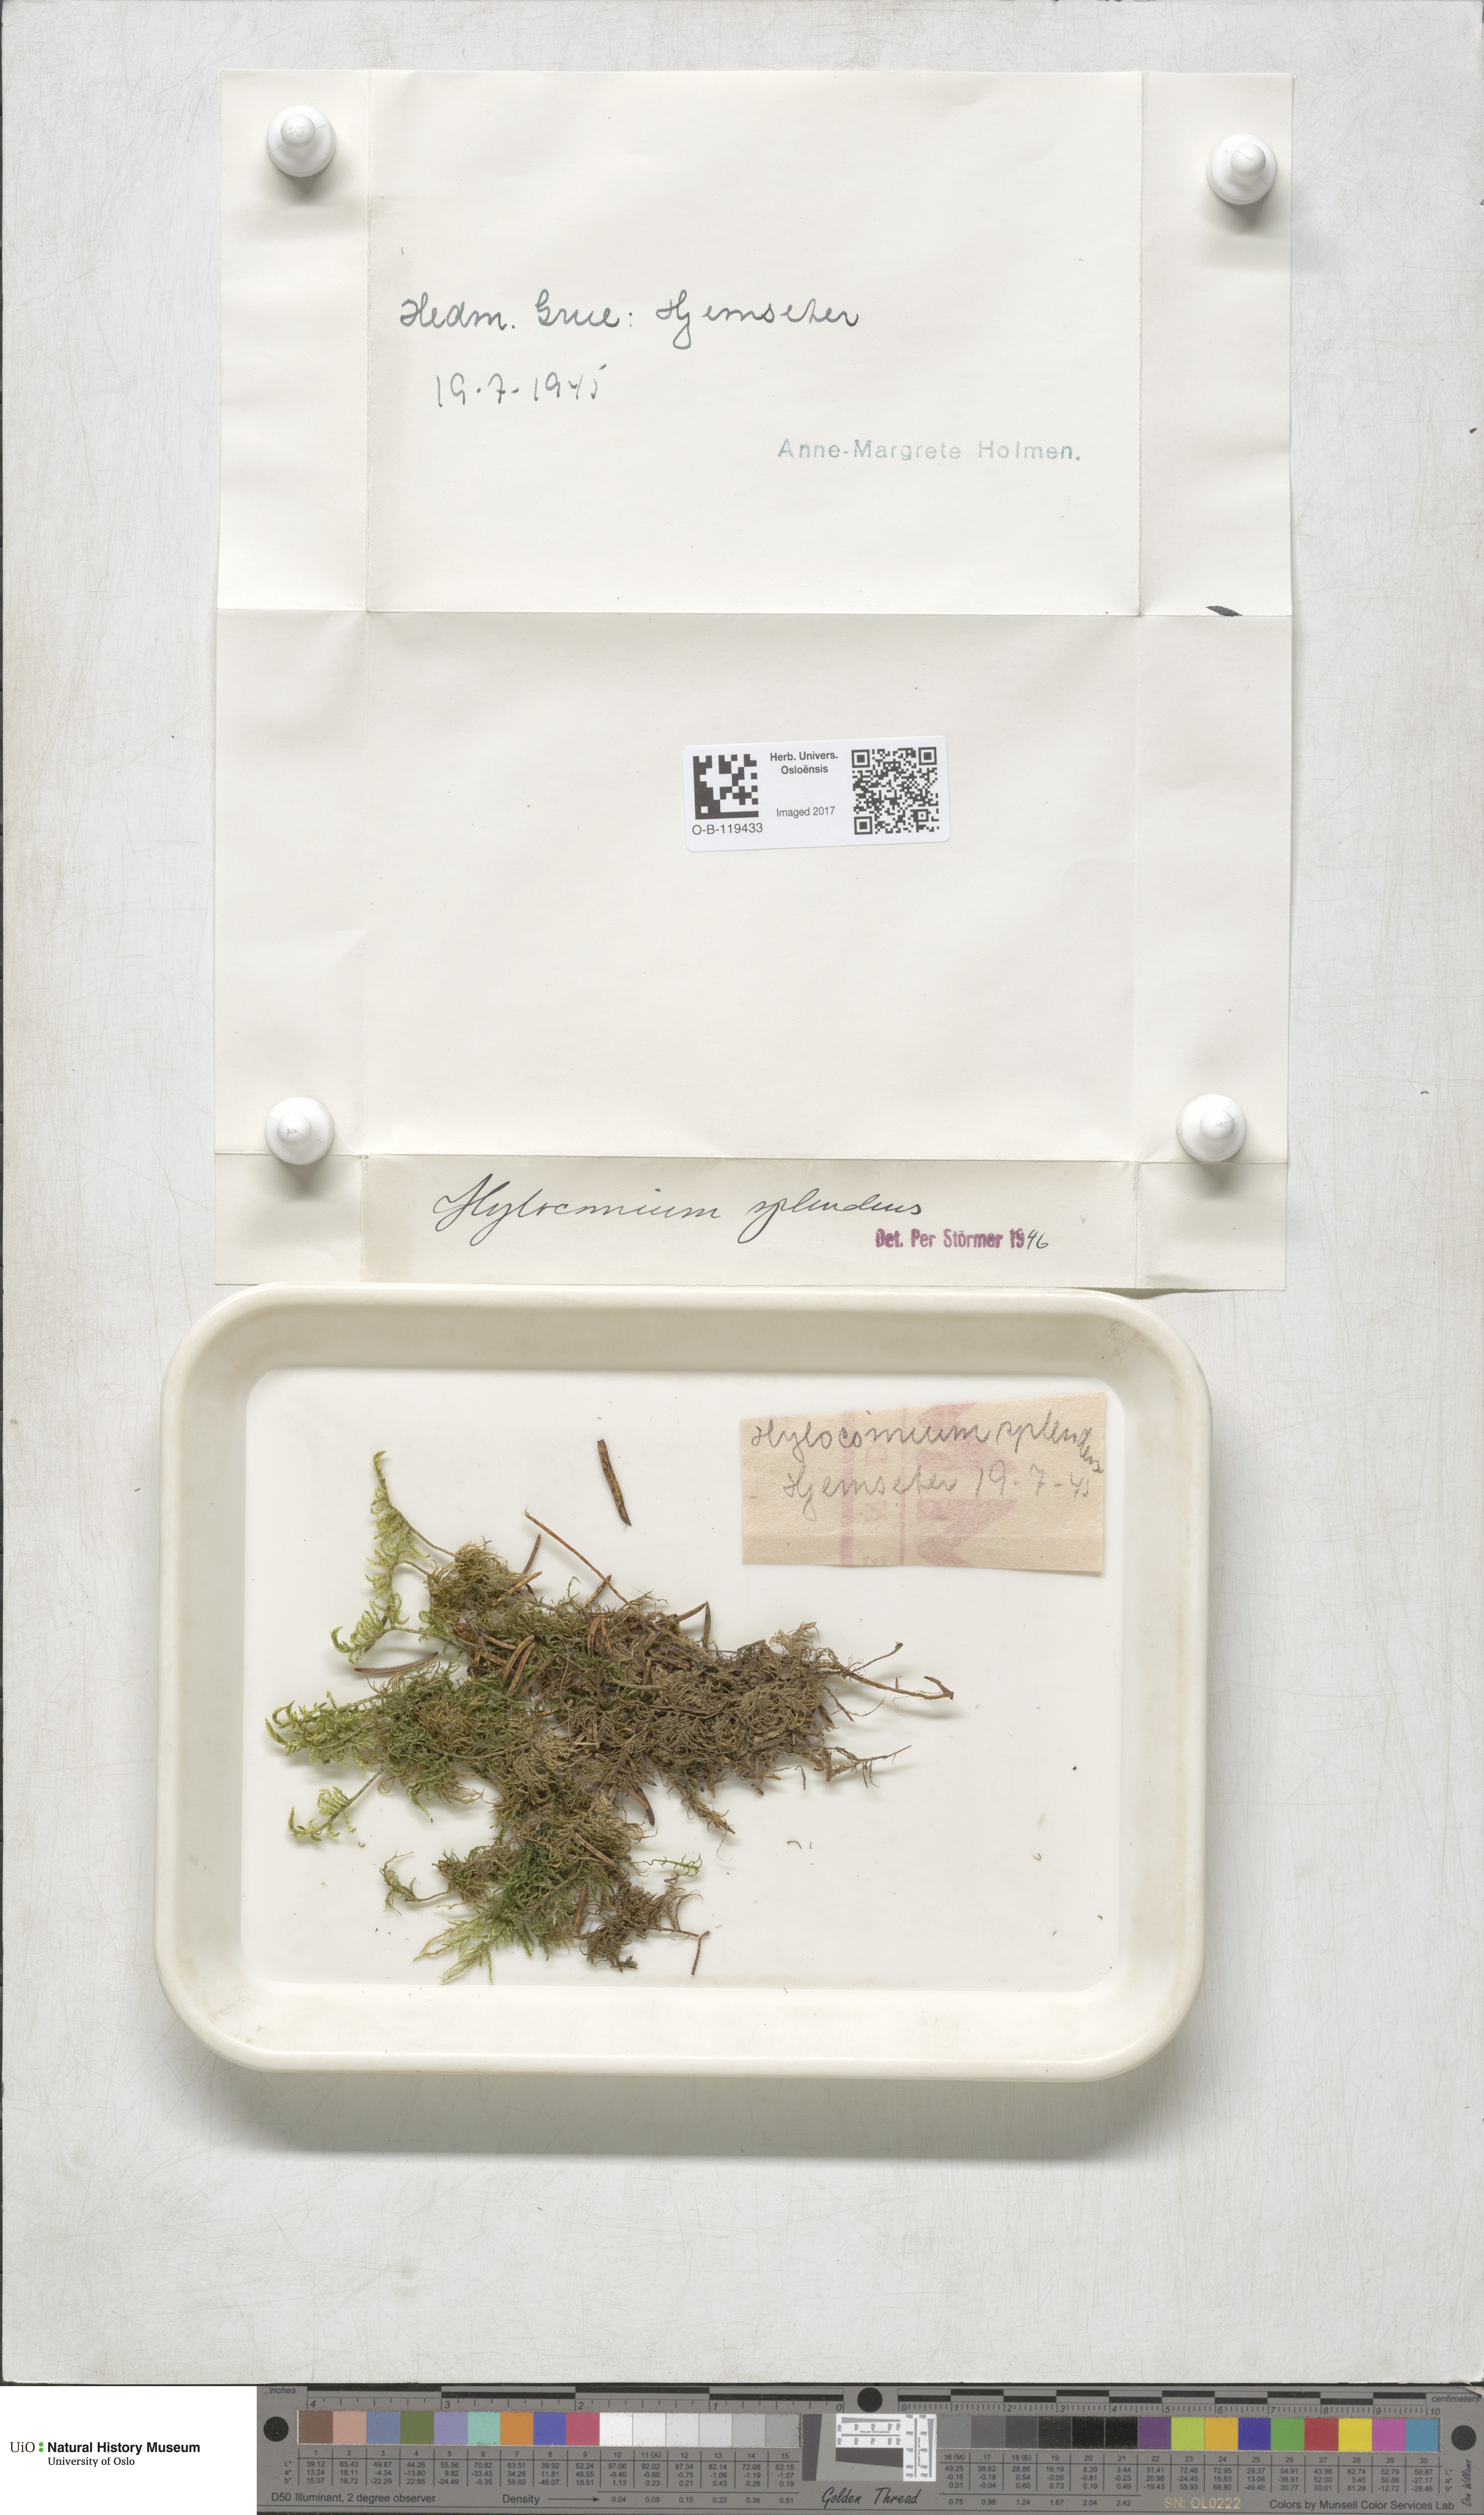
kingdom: Plantae
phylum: Bryophyta
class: Bryopsida
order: Hypnales
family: Hylocomiaceae
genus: Hylocomium
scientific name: Hylocomium splendens
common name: Stairstep moss
